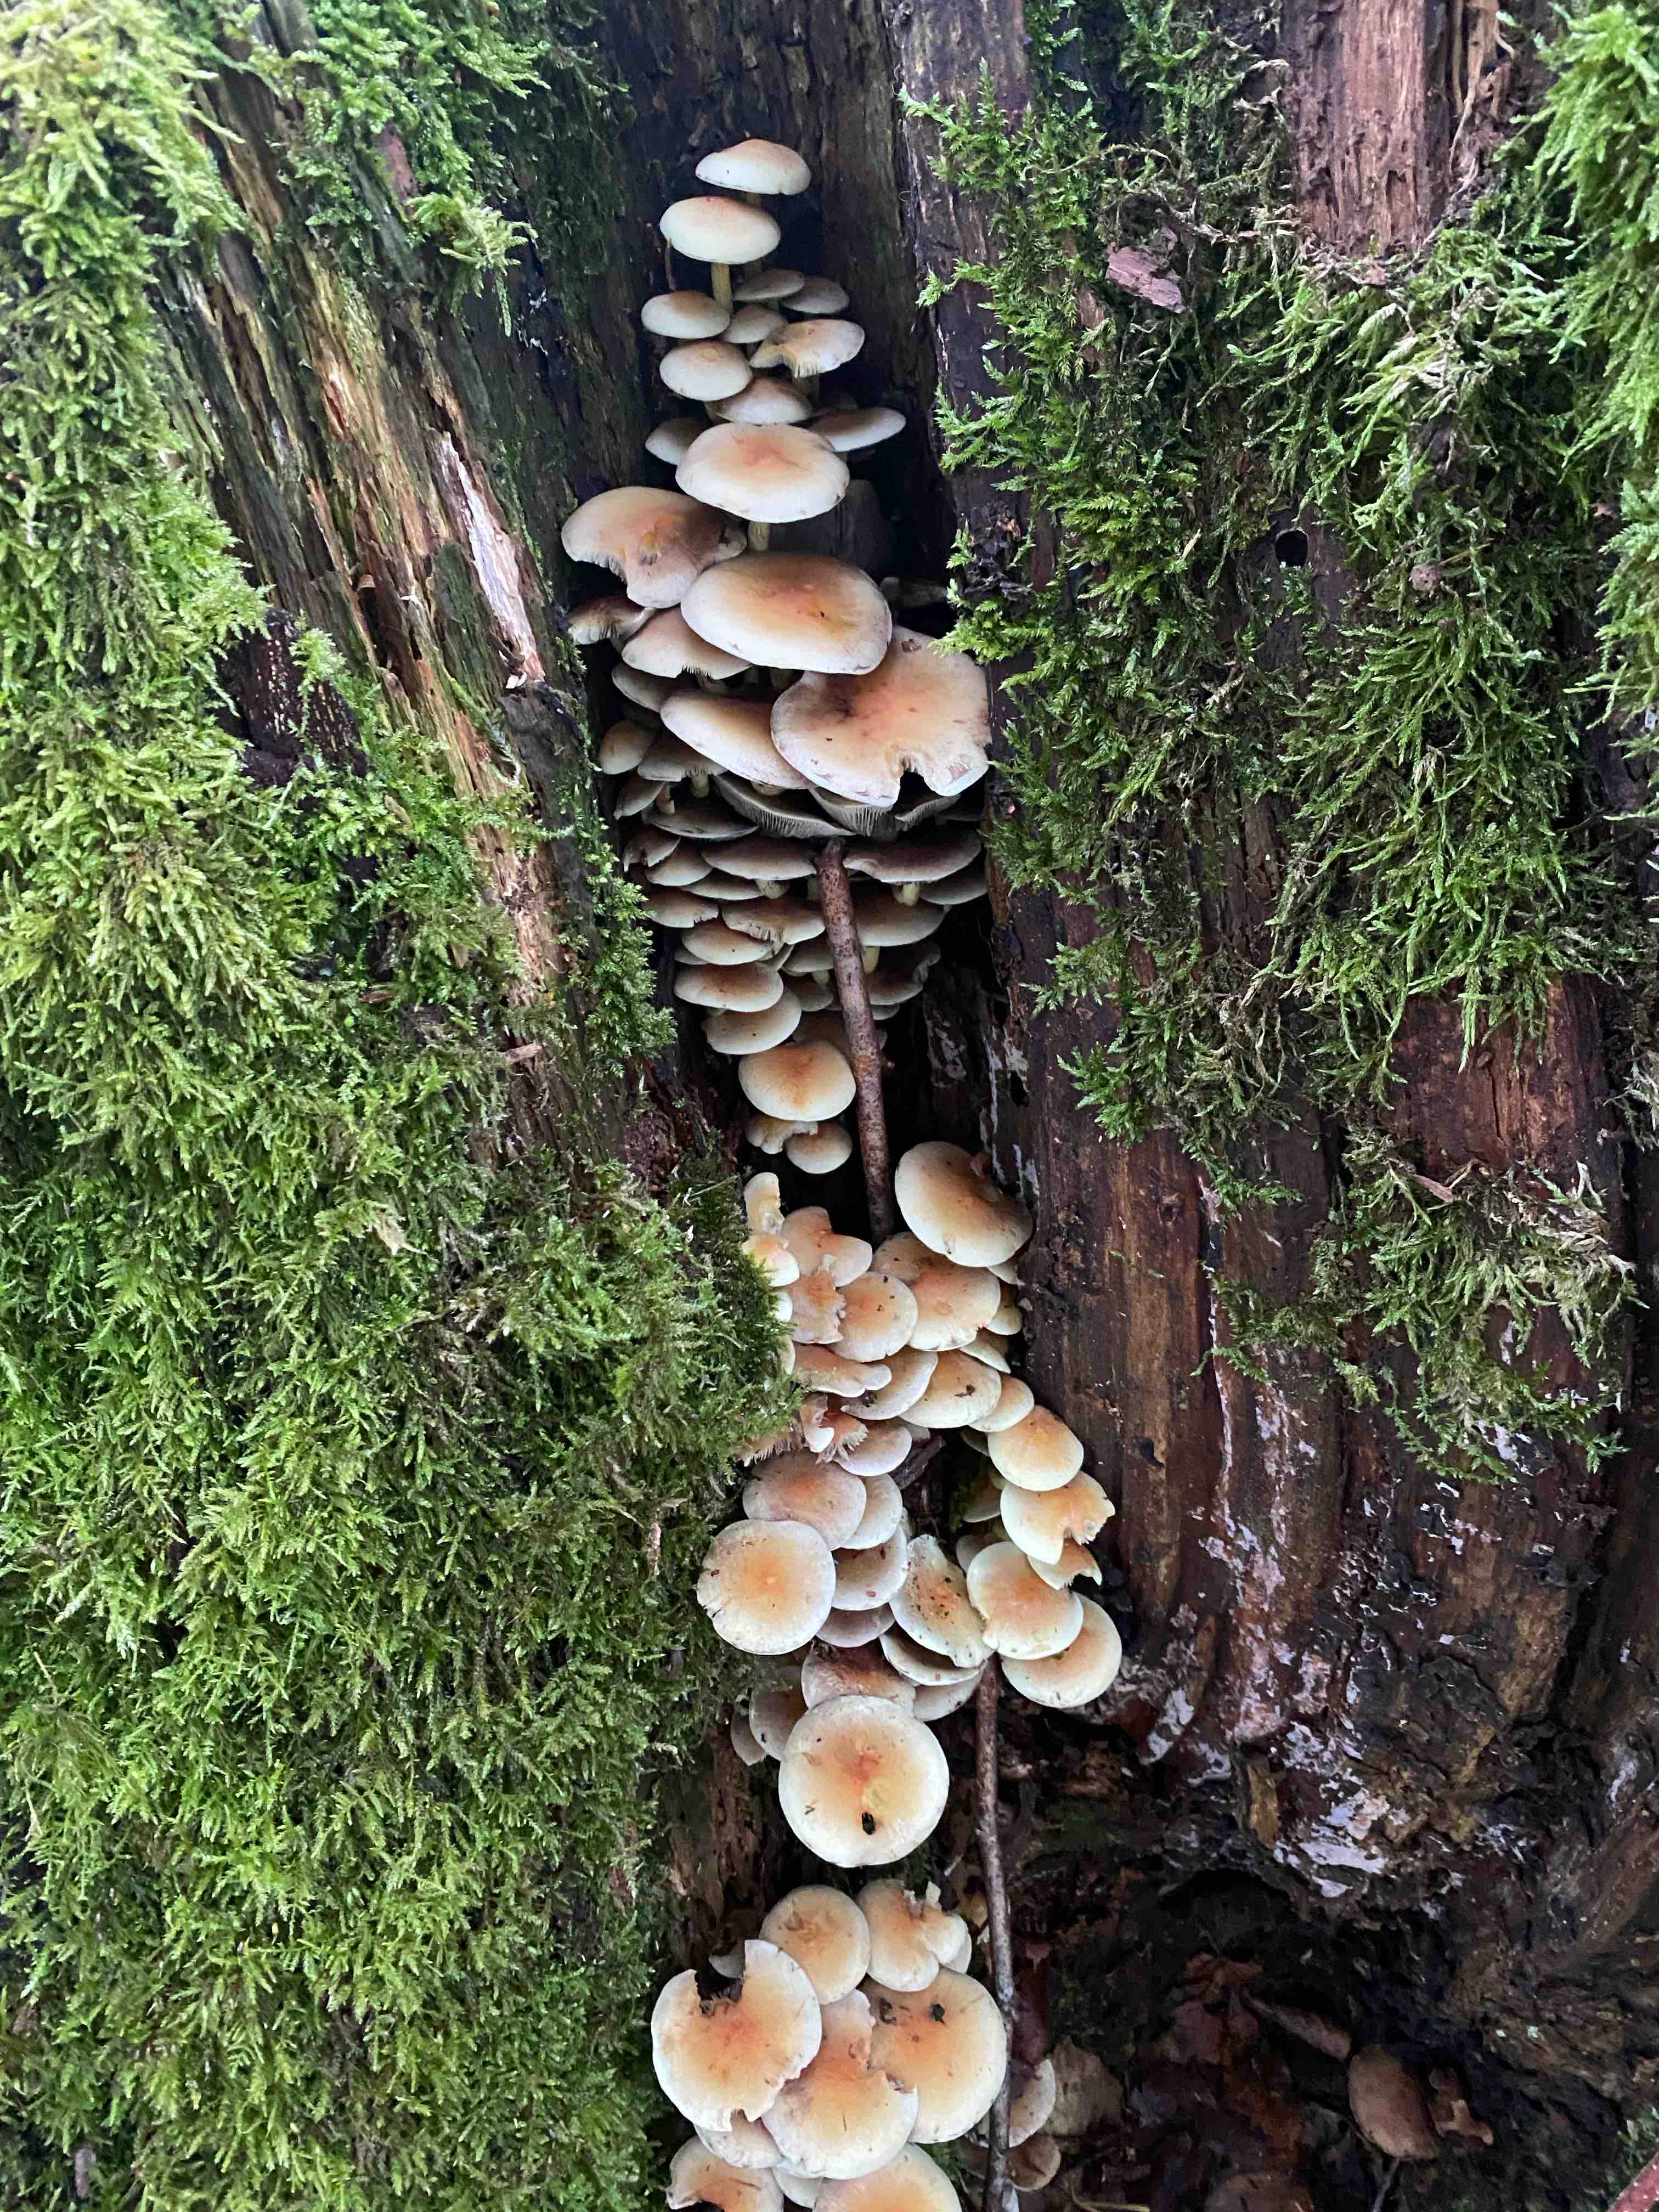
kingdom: Fungi
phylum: Basidiomycota
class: Agaricomycetes
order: Agaricales
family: Strophariaceae
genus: Hypholoma
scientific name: Hypholoma fasciculare
